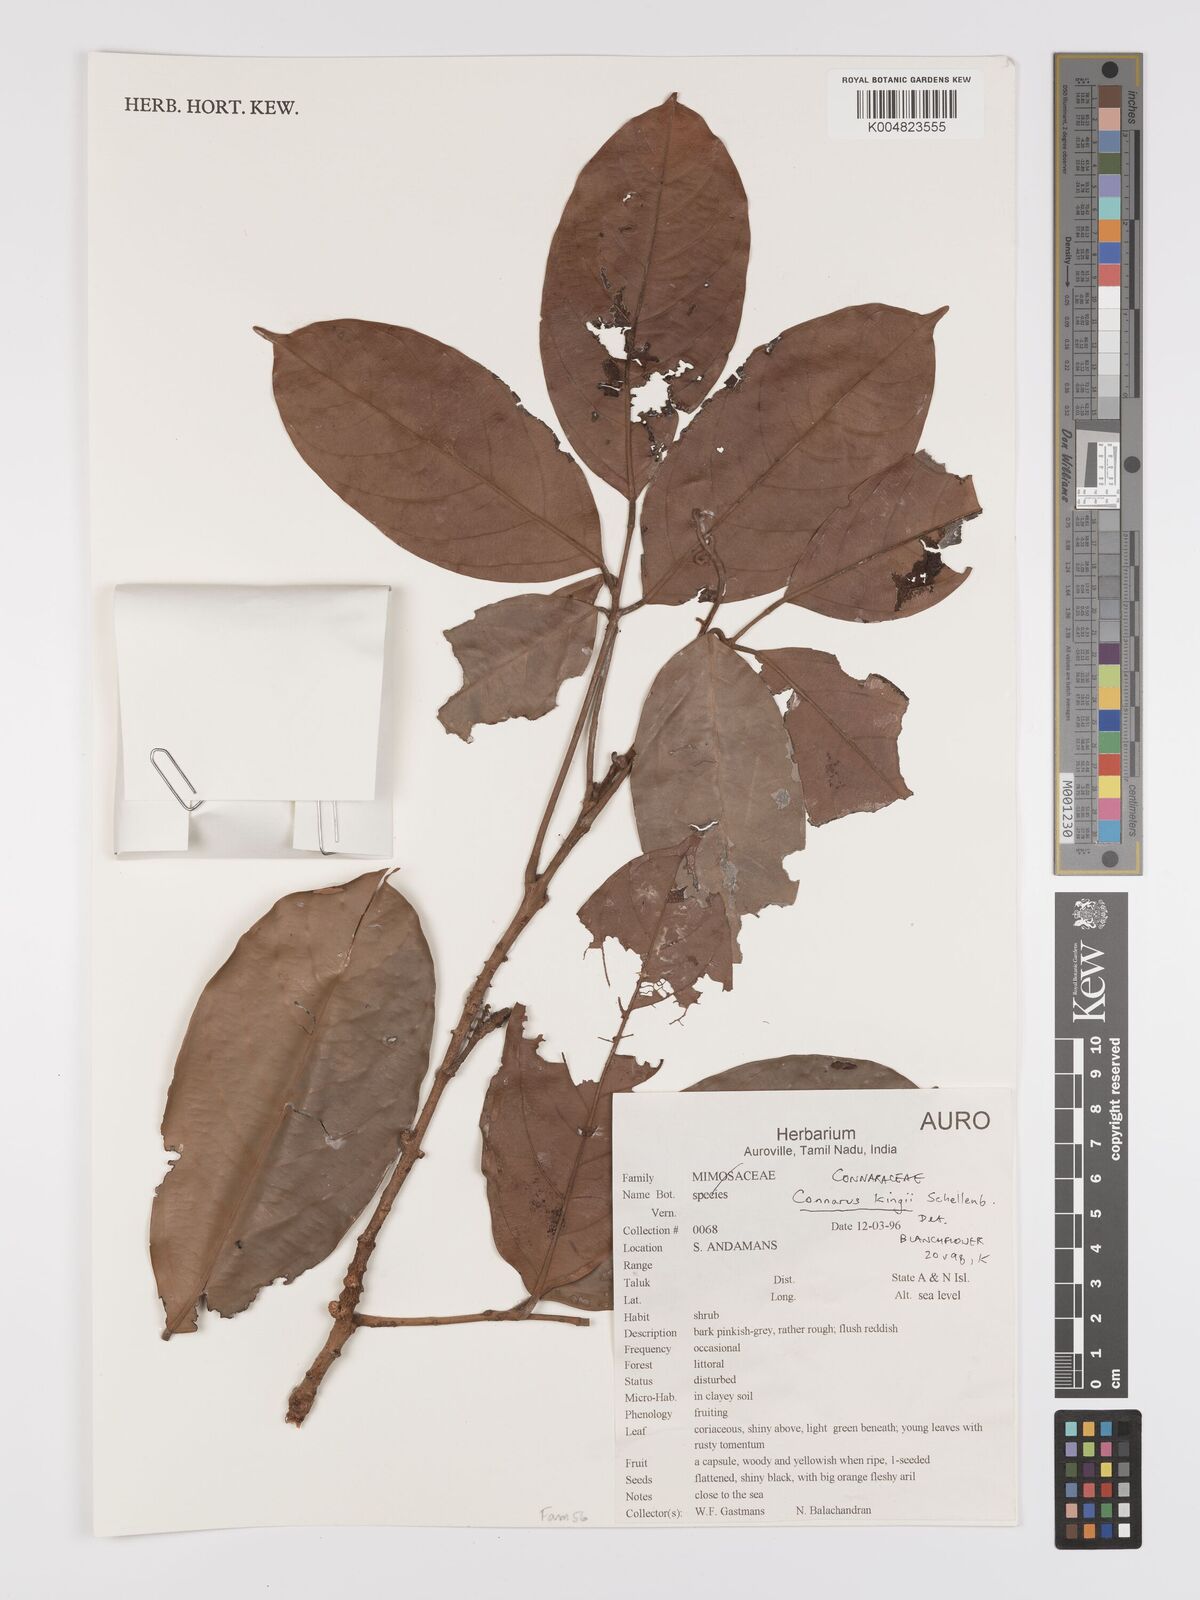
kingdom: Plantae
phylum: Tracheophyta
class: Magnoliopsida
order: Oxalidales
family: Connaraceae
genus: Connarus
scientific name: Connarus kingii
